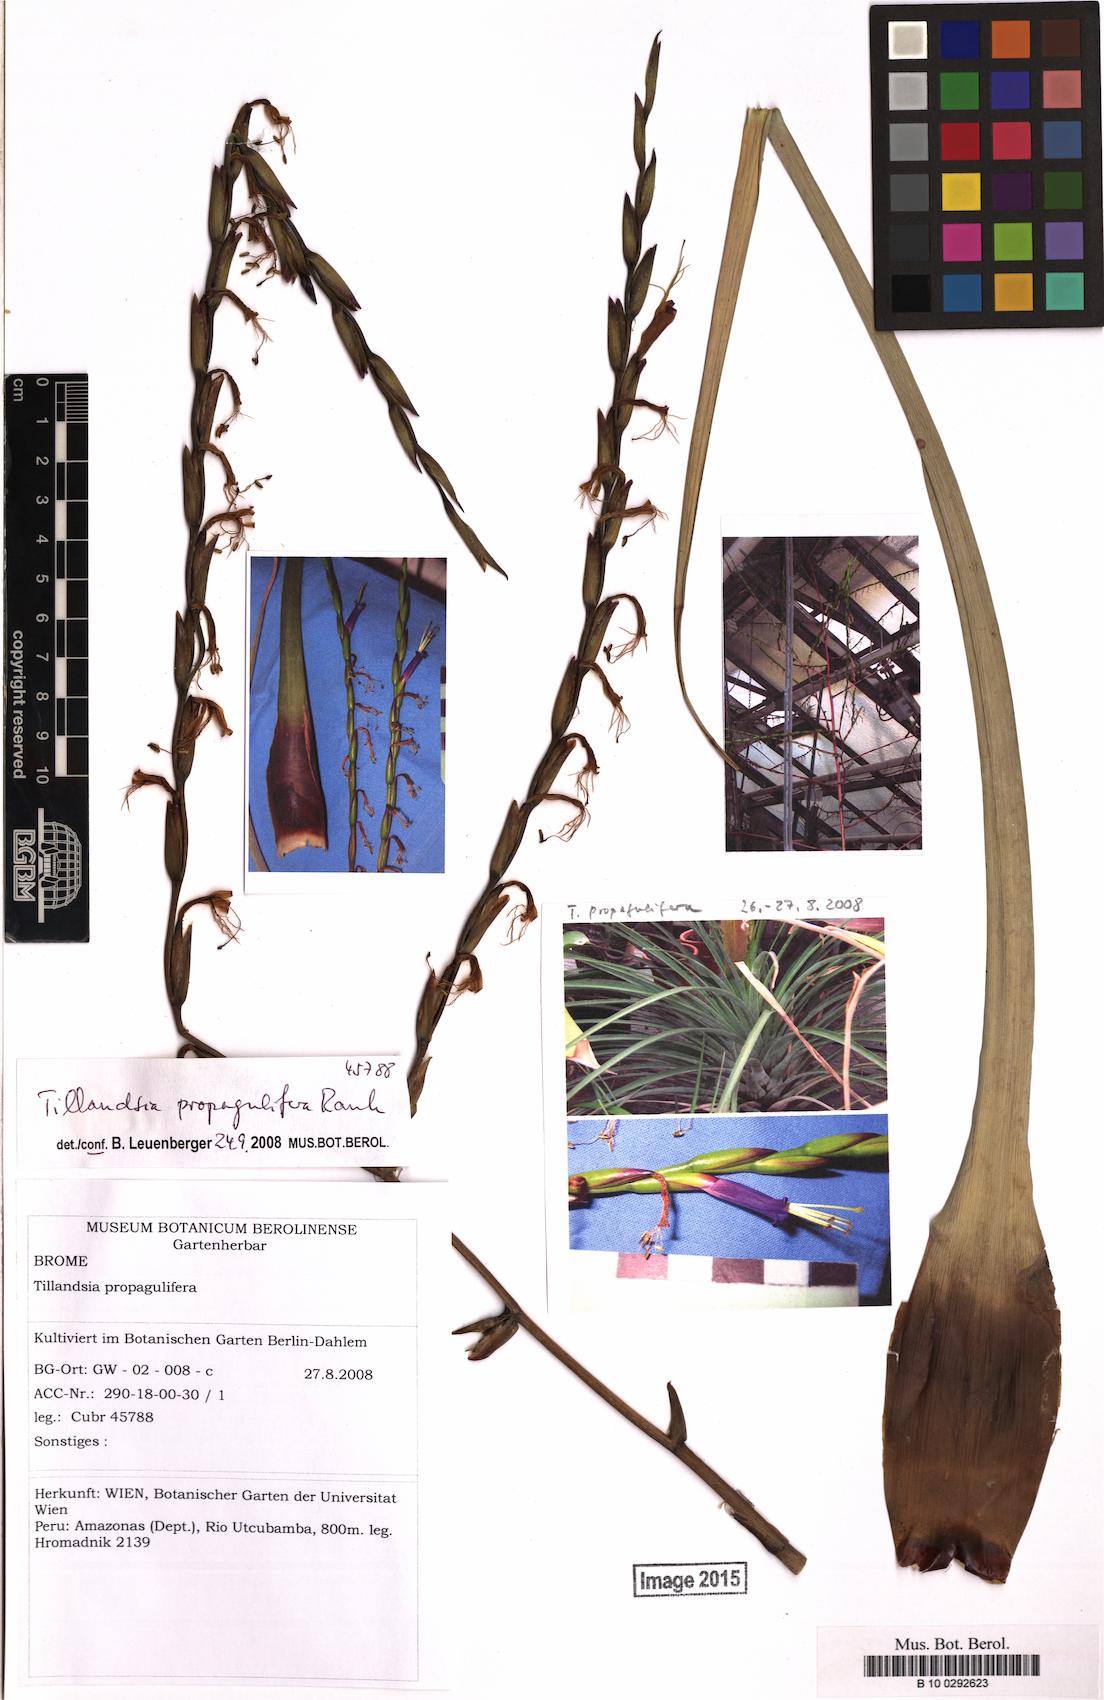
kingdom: Plantae
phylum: Tracheophyta
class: Liliopsida
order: Poales
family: Bromeliaceae
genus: Tillandsia
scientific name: Tillandsia propagulifera
